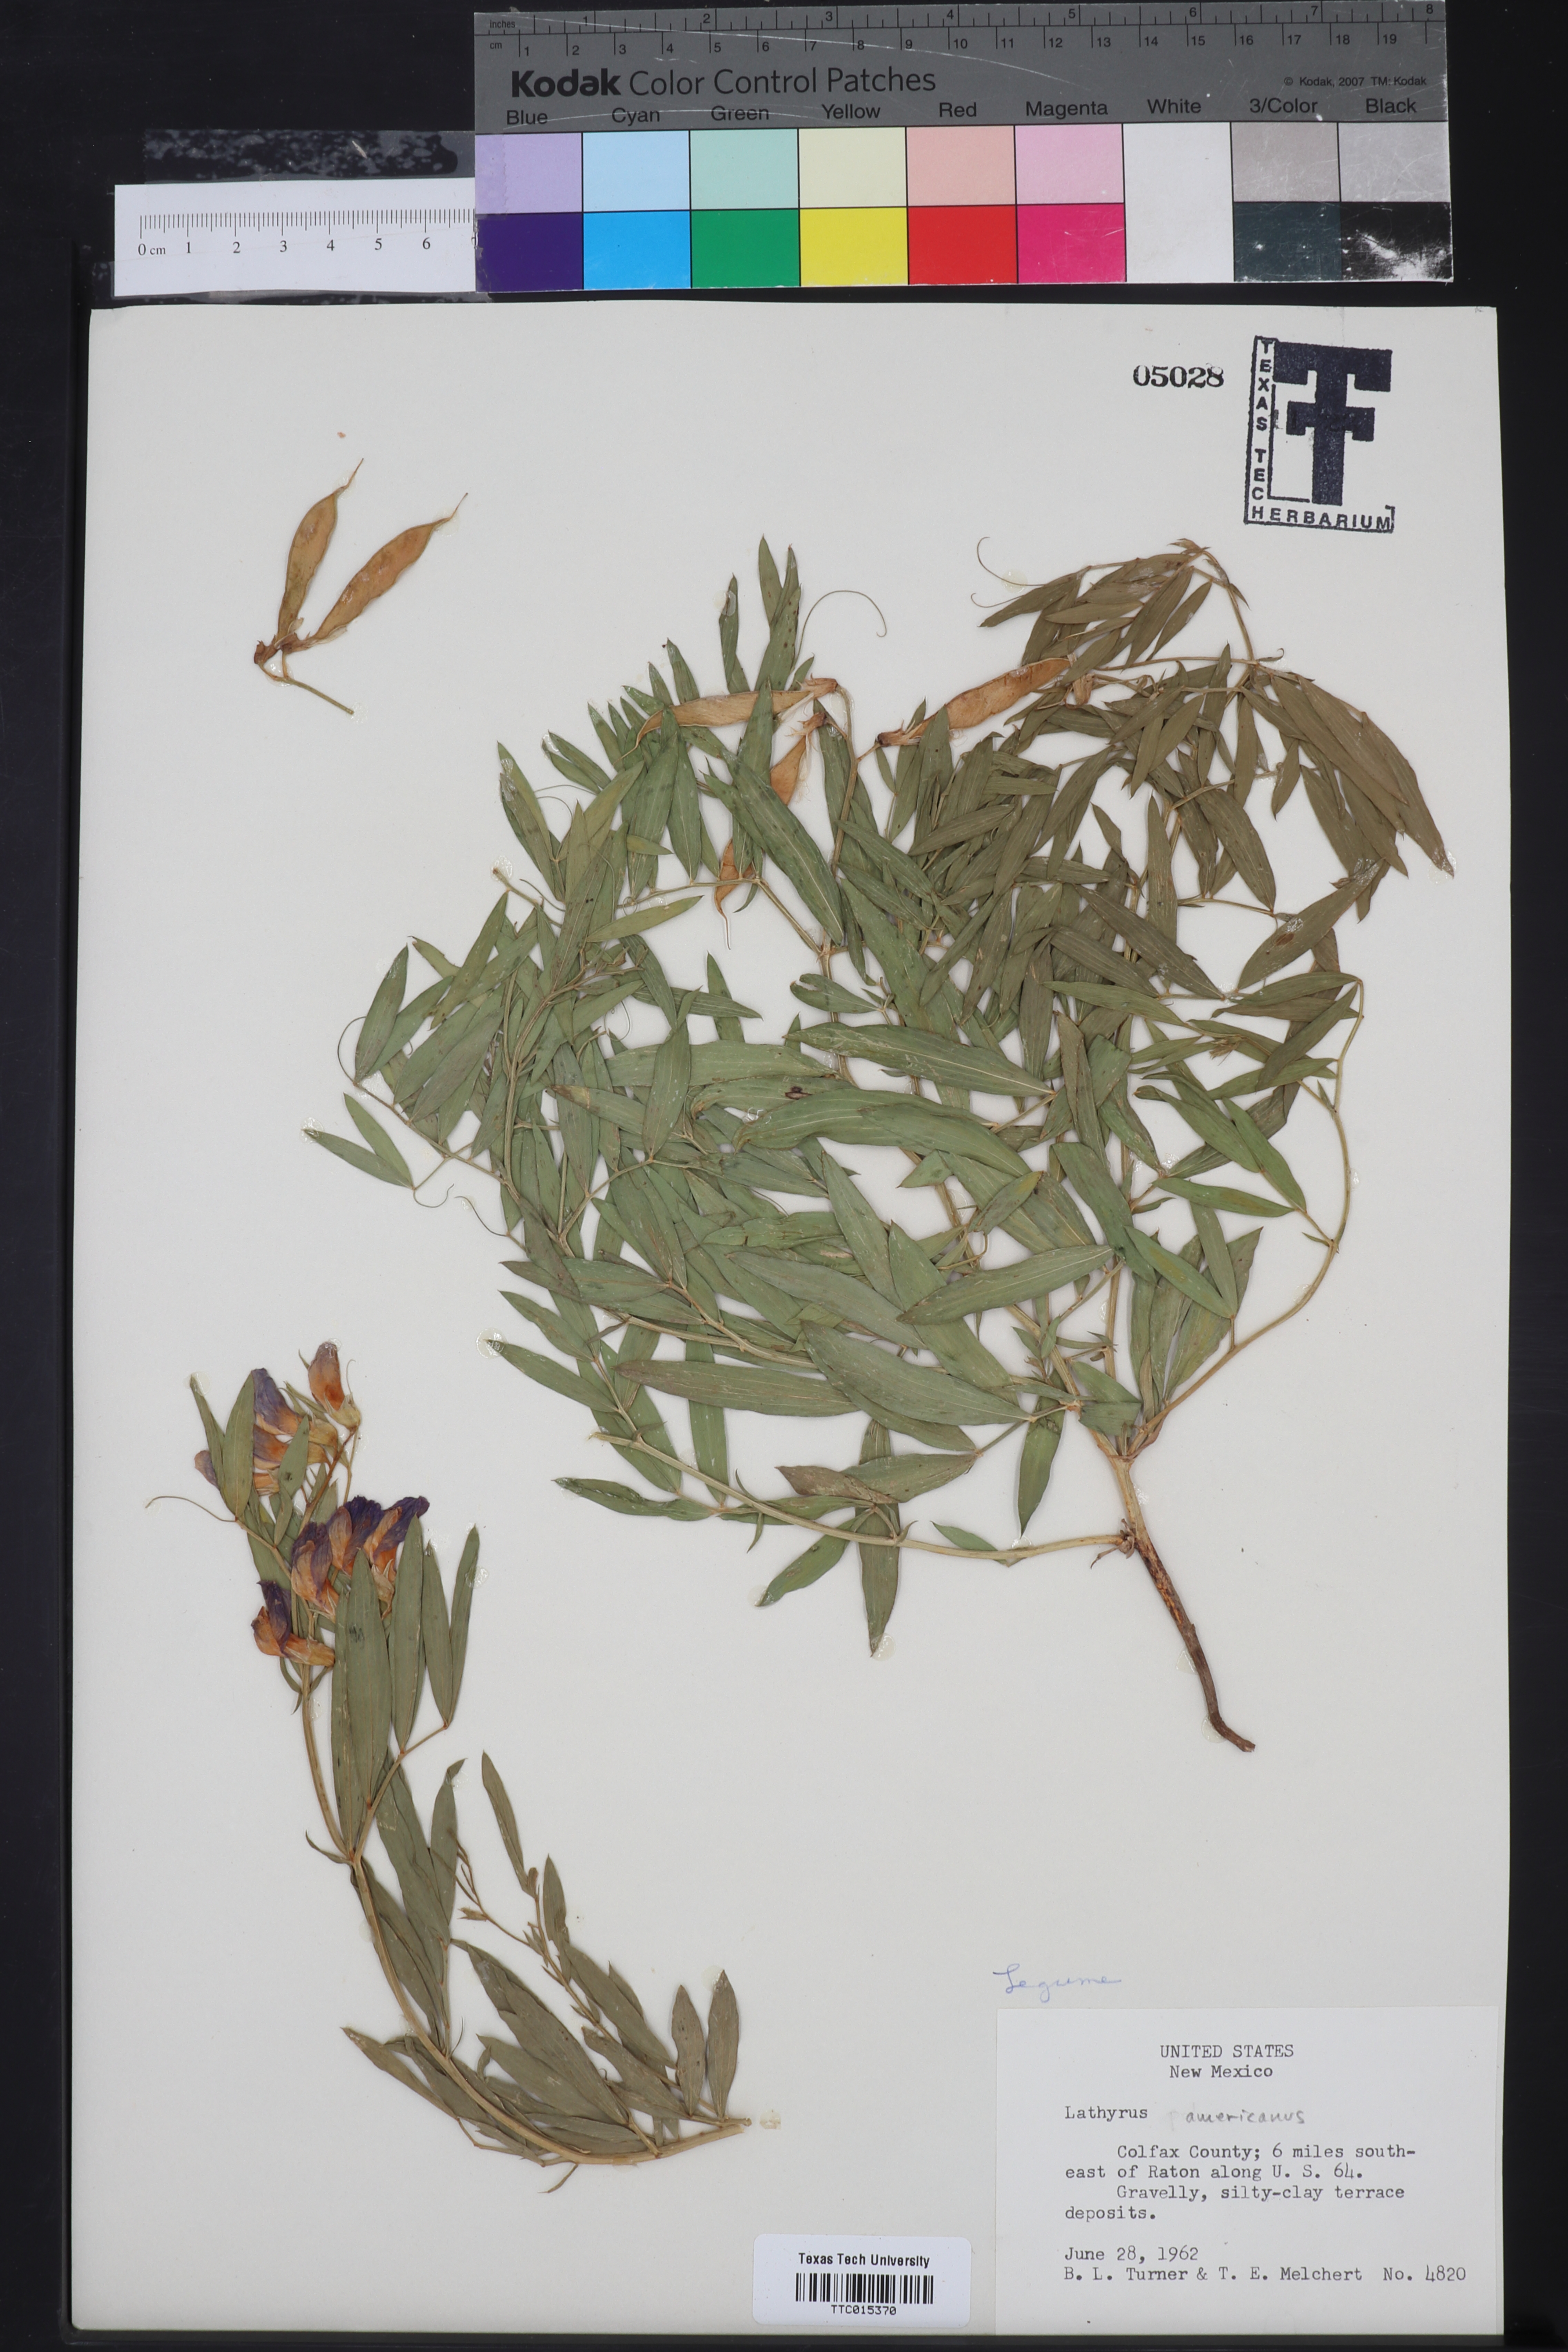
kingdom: Plantae
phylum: Tracheophyta
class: Magnoliopsida
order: Fabales
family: Fabaceae
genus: Rhynchosia
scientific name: Rhynchosia americana
